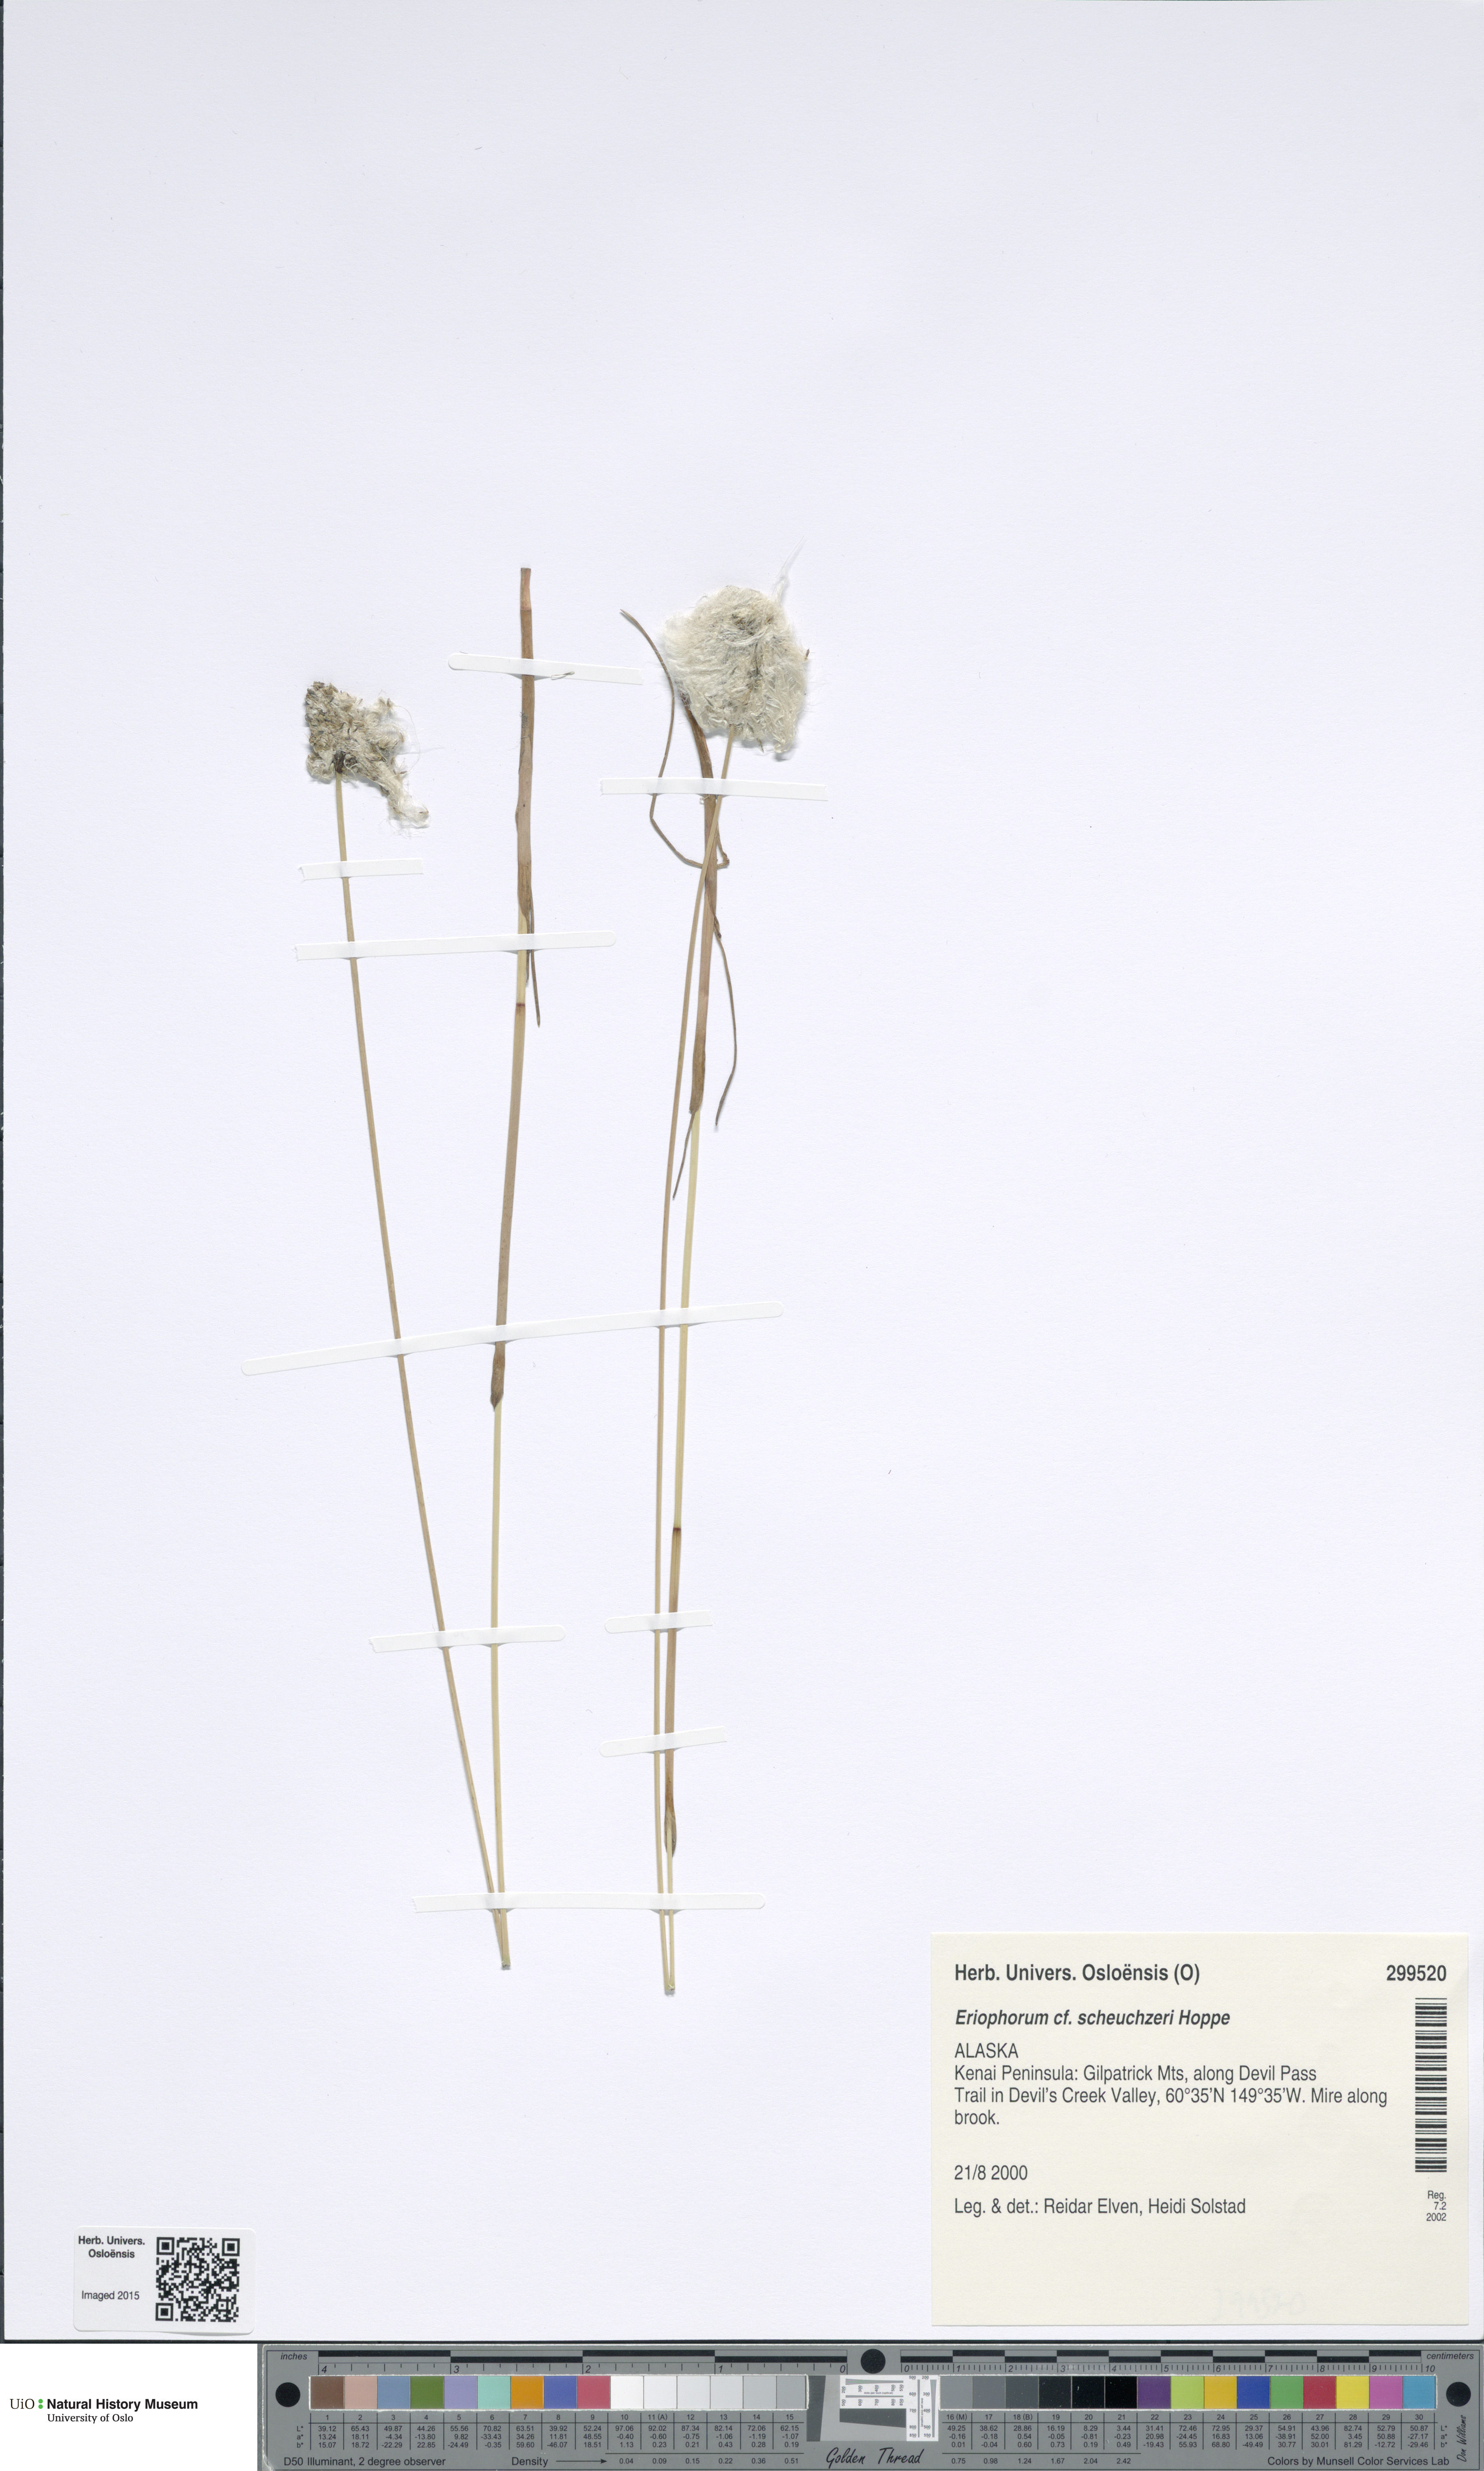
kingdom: Plantae
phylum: Tracheophyta
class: Liliopsida
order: Poales
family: Cyperaceae
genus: Eriophorum
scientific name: Eriophorum scheuchzeri
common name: Scheuchzer's cottongrass
